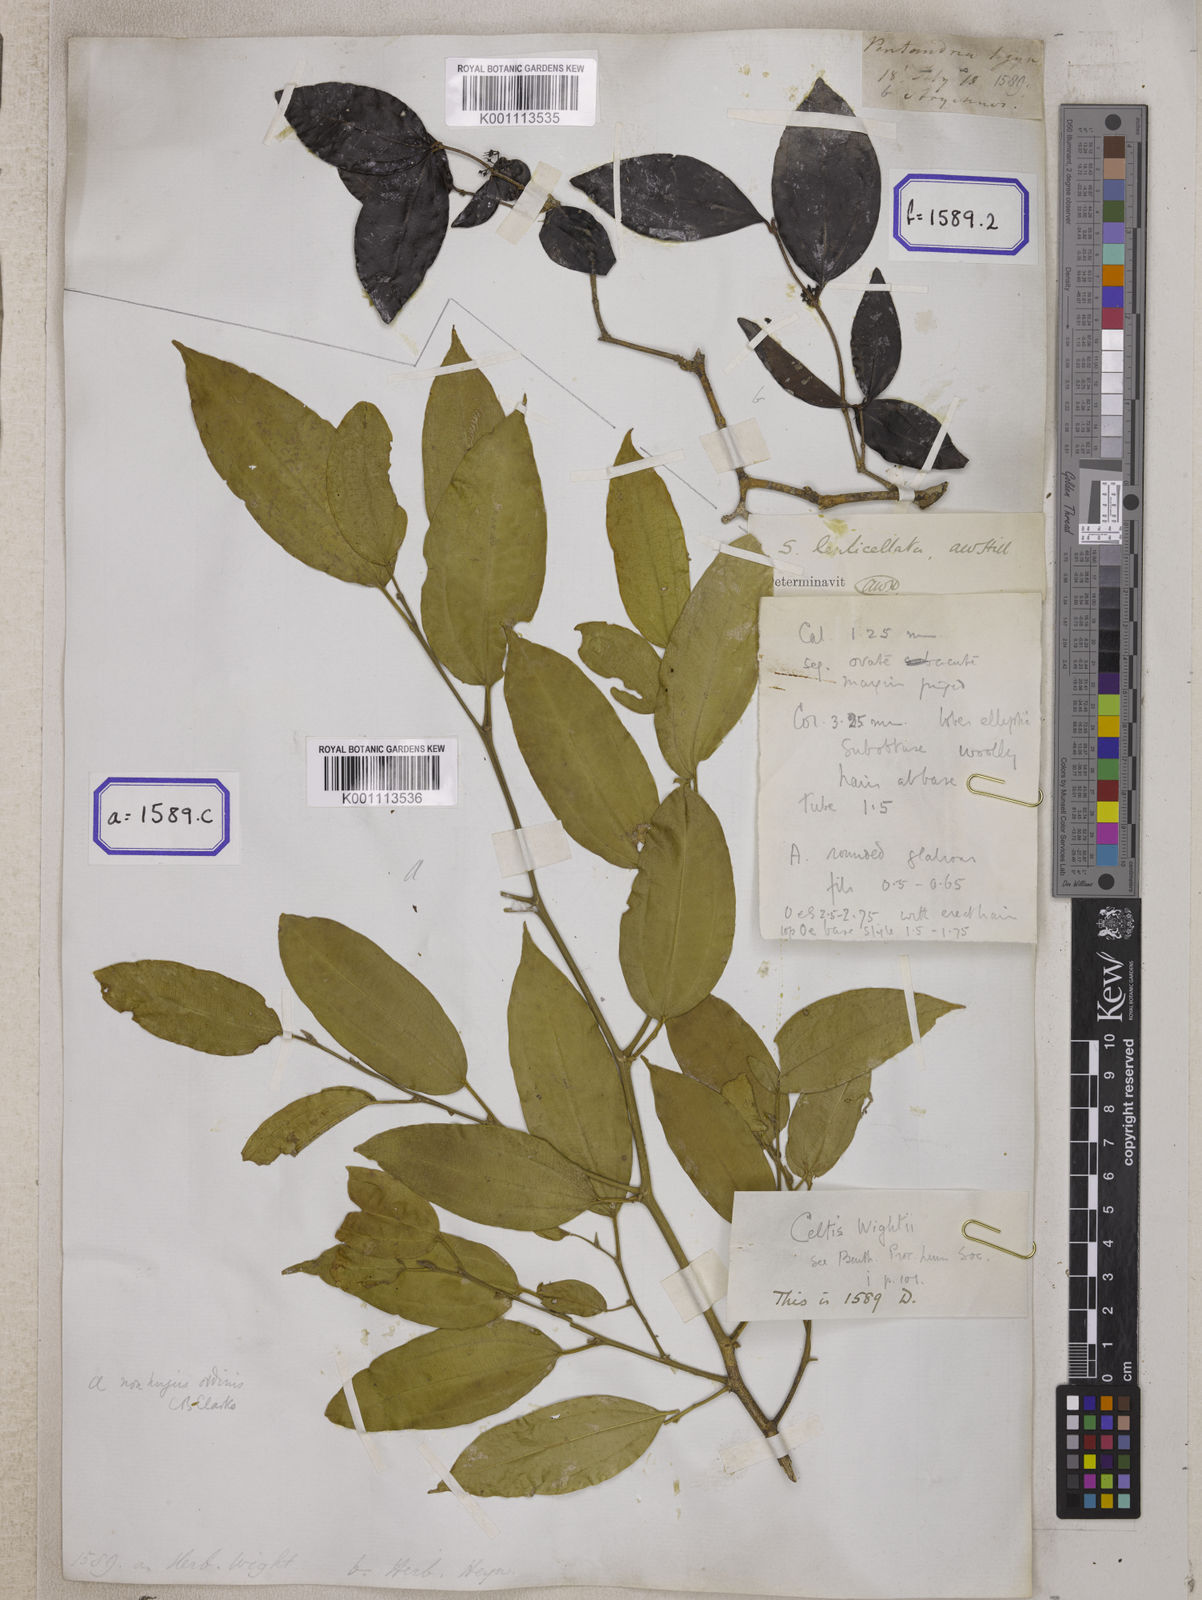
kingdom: Plantae
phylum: Tracheophyta
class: Magnoliopsida
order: Gentianales
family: Loganiaceae
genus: Strychnos
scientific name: Strychnos
